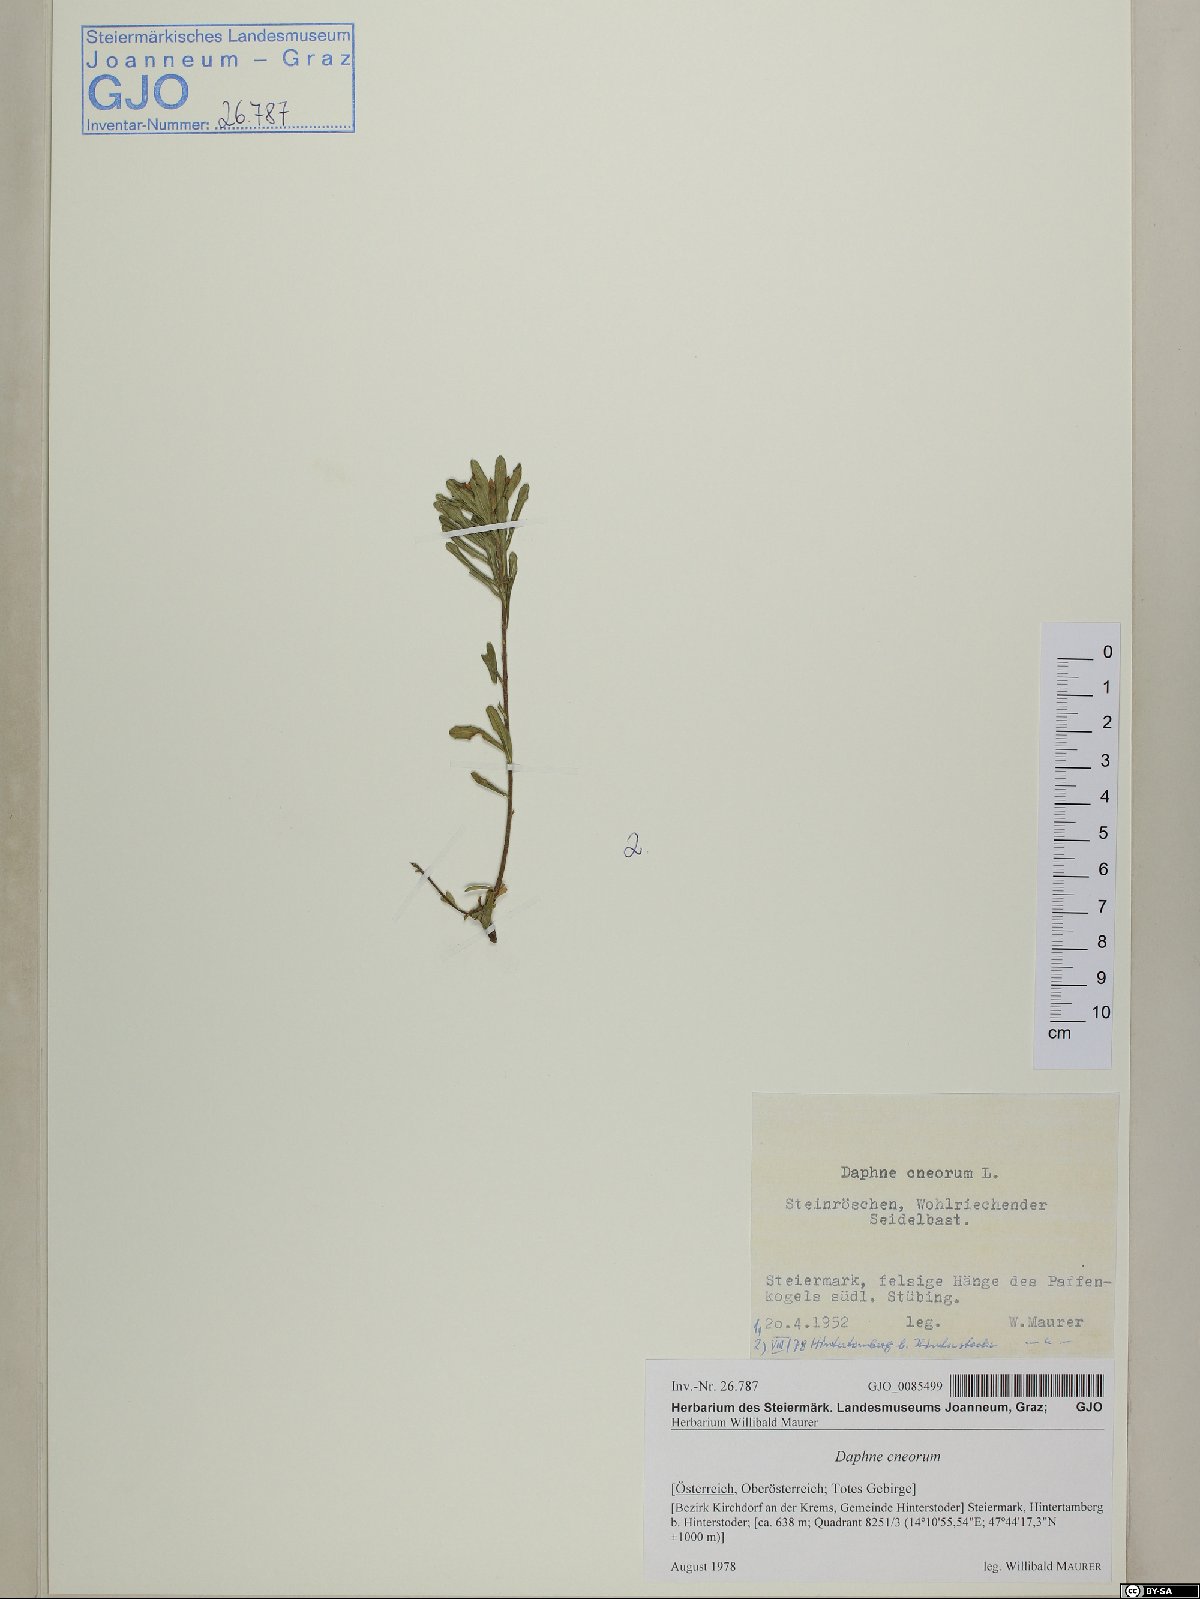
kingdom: Plantae
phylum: Tracheophyta
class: Magnoliopsida
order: Malvales
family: Thymelaeaceae
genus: Daphne
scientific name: Daphne cneorum
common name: Garland-flower
